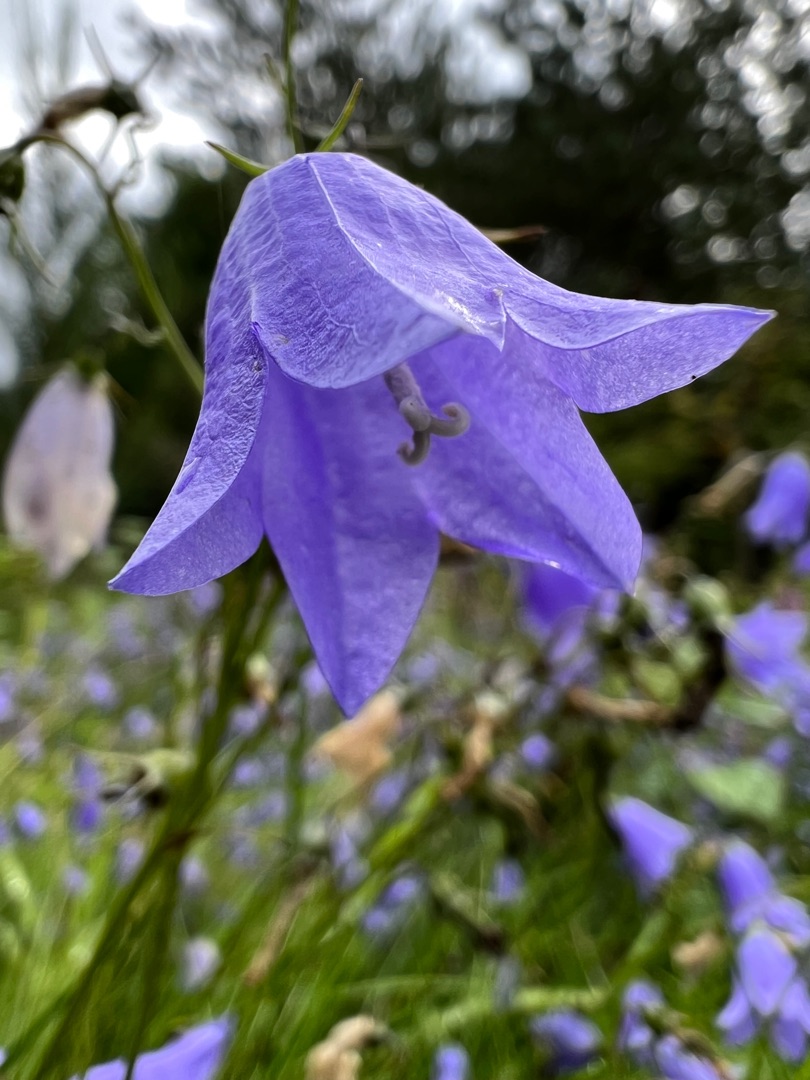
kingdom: Plantae
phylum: Tracheophyta
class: Magnoliopsida
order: Asterales
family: Campanulaceae
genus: Campanula
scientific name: Campanula rotundifolia
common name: Liden klokke
